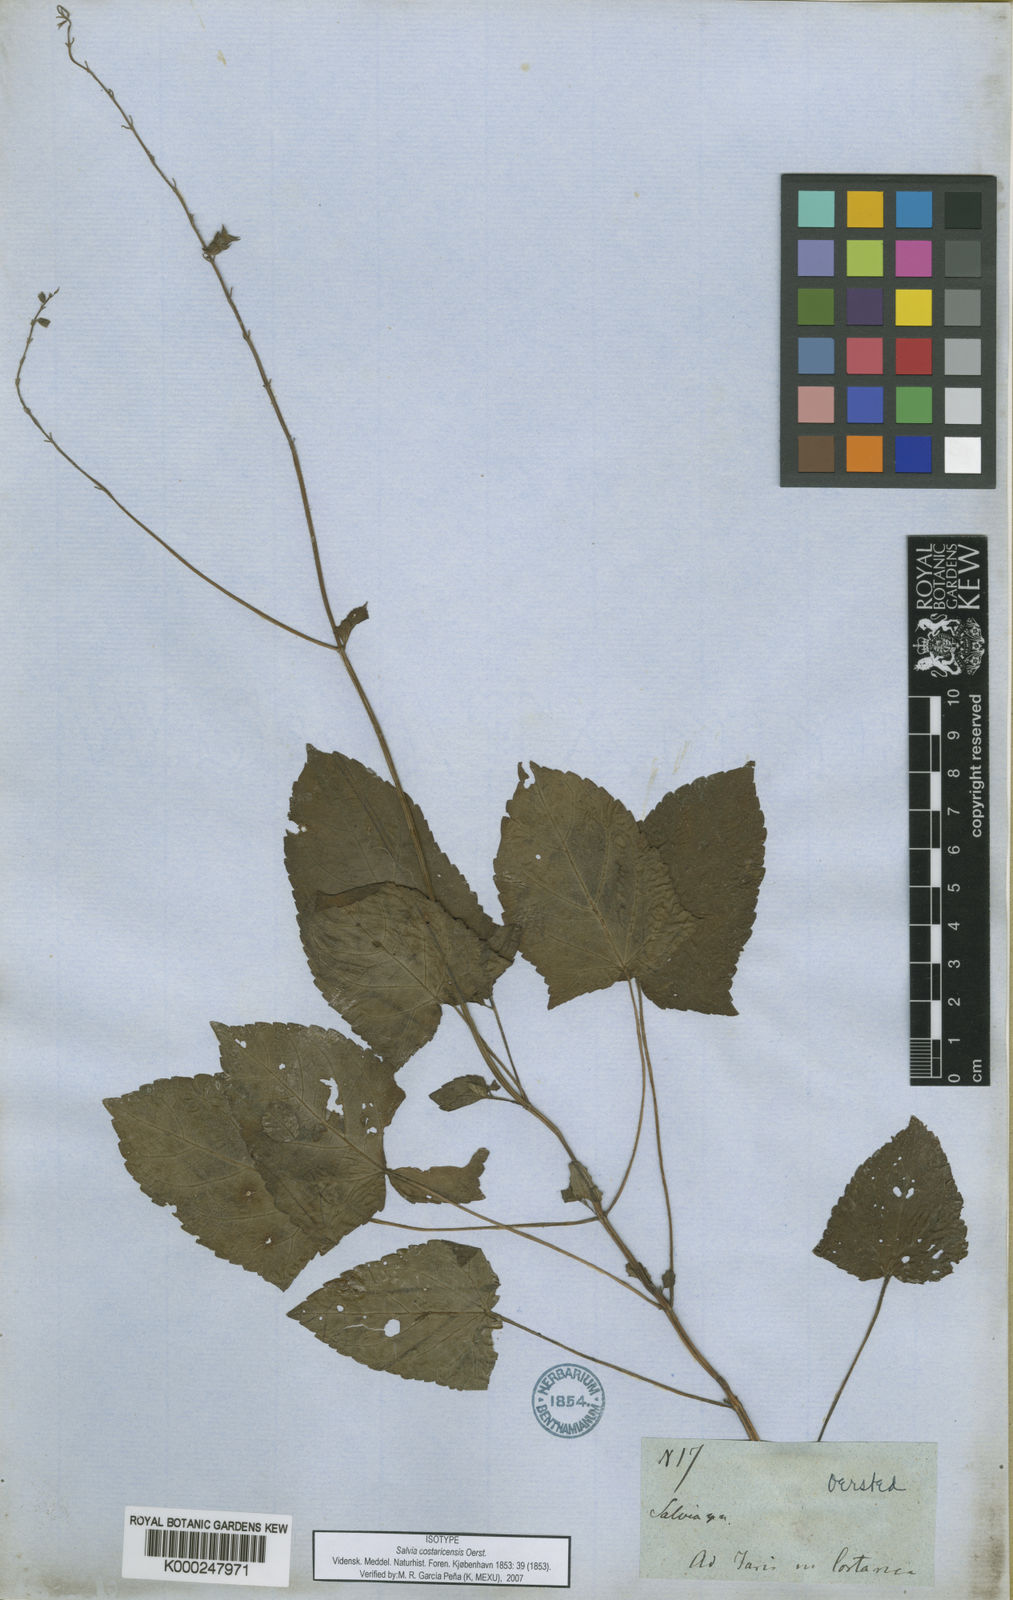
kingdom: Plantae
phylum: Tracheophyta
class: Magnoliopsida
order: Lamiales
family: Lamiaceae
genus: Salvia
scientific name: Salvia costaricensis
